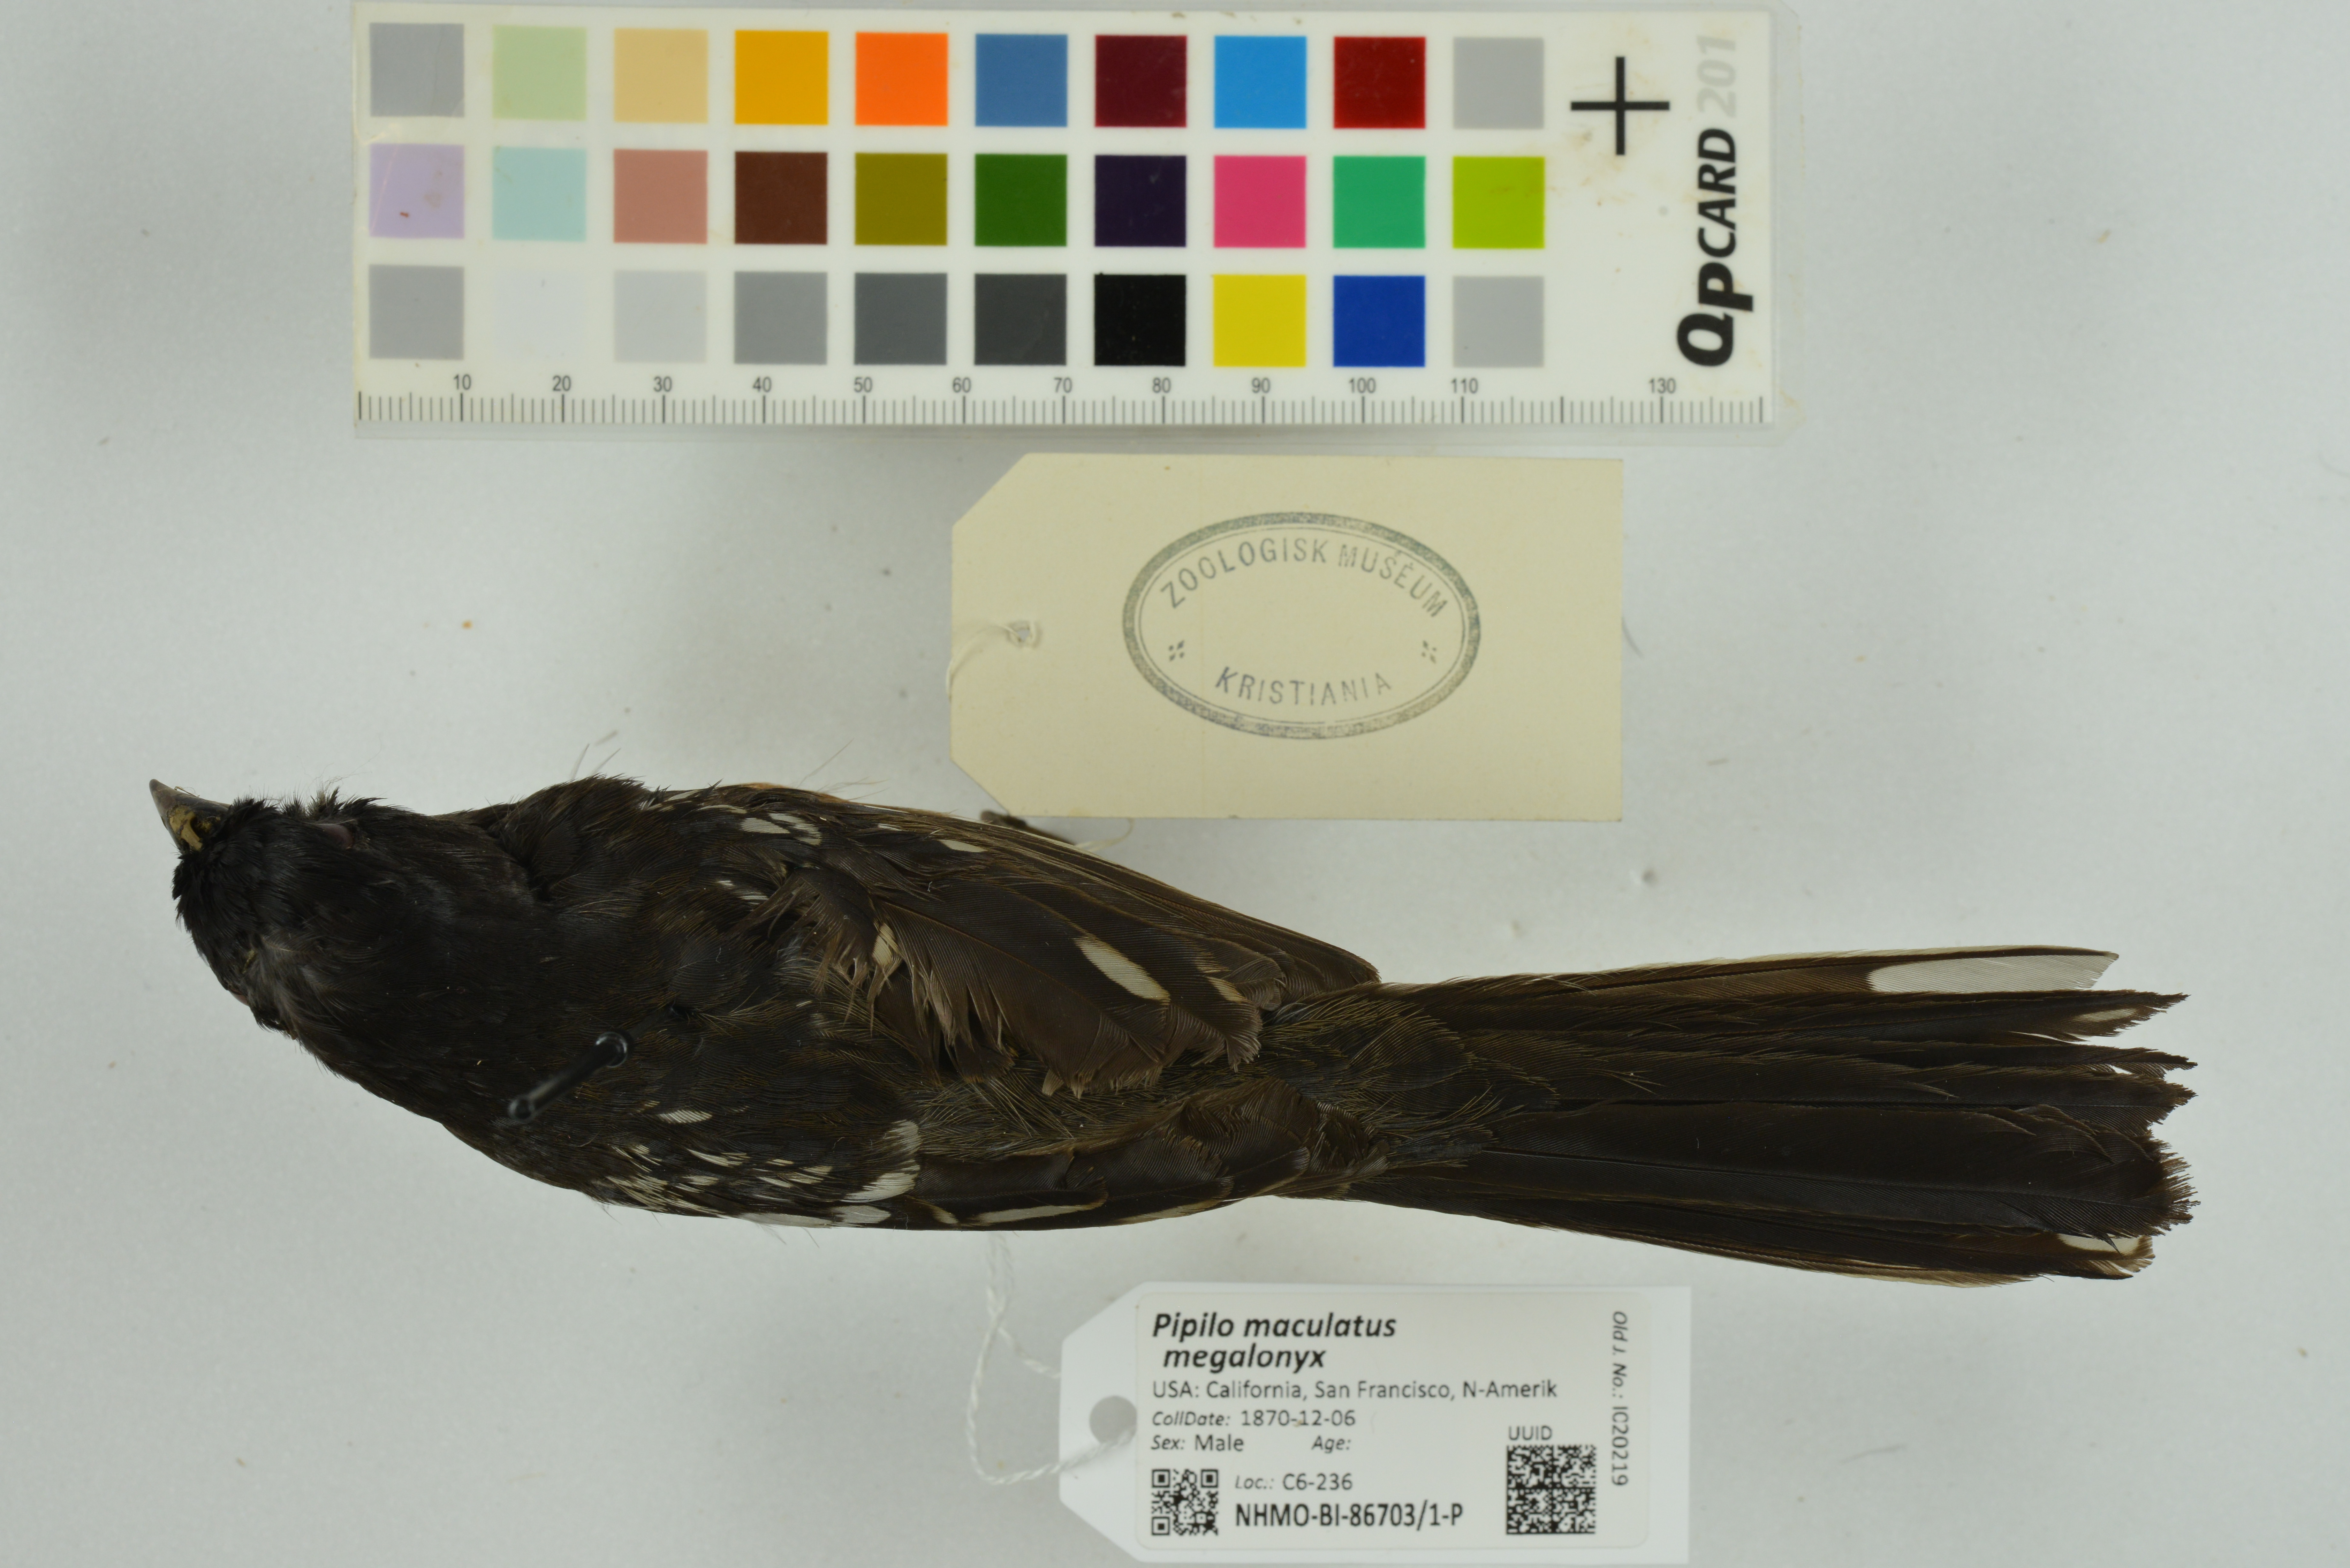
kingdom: Animalia
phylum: Chordata
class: Aves
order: Passeriformes
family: Passerellidae
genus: Pipilo
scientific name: Pipilo maculatus
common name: Spotted towhee
